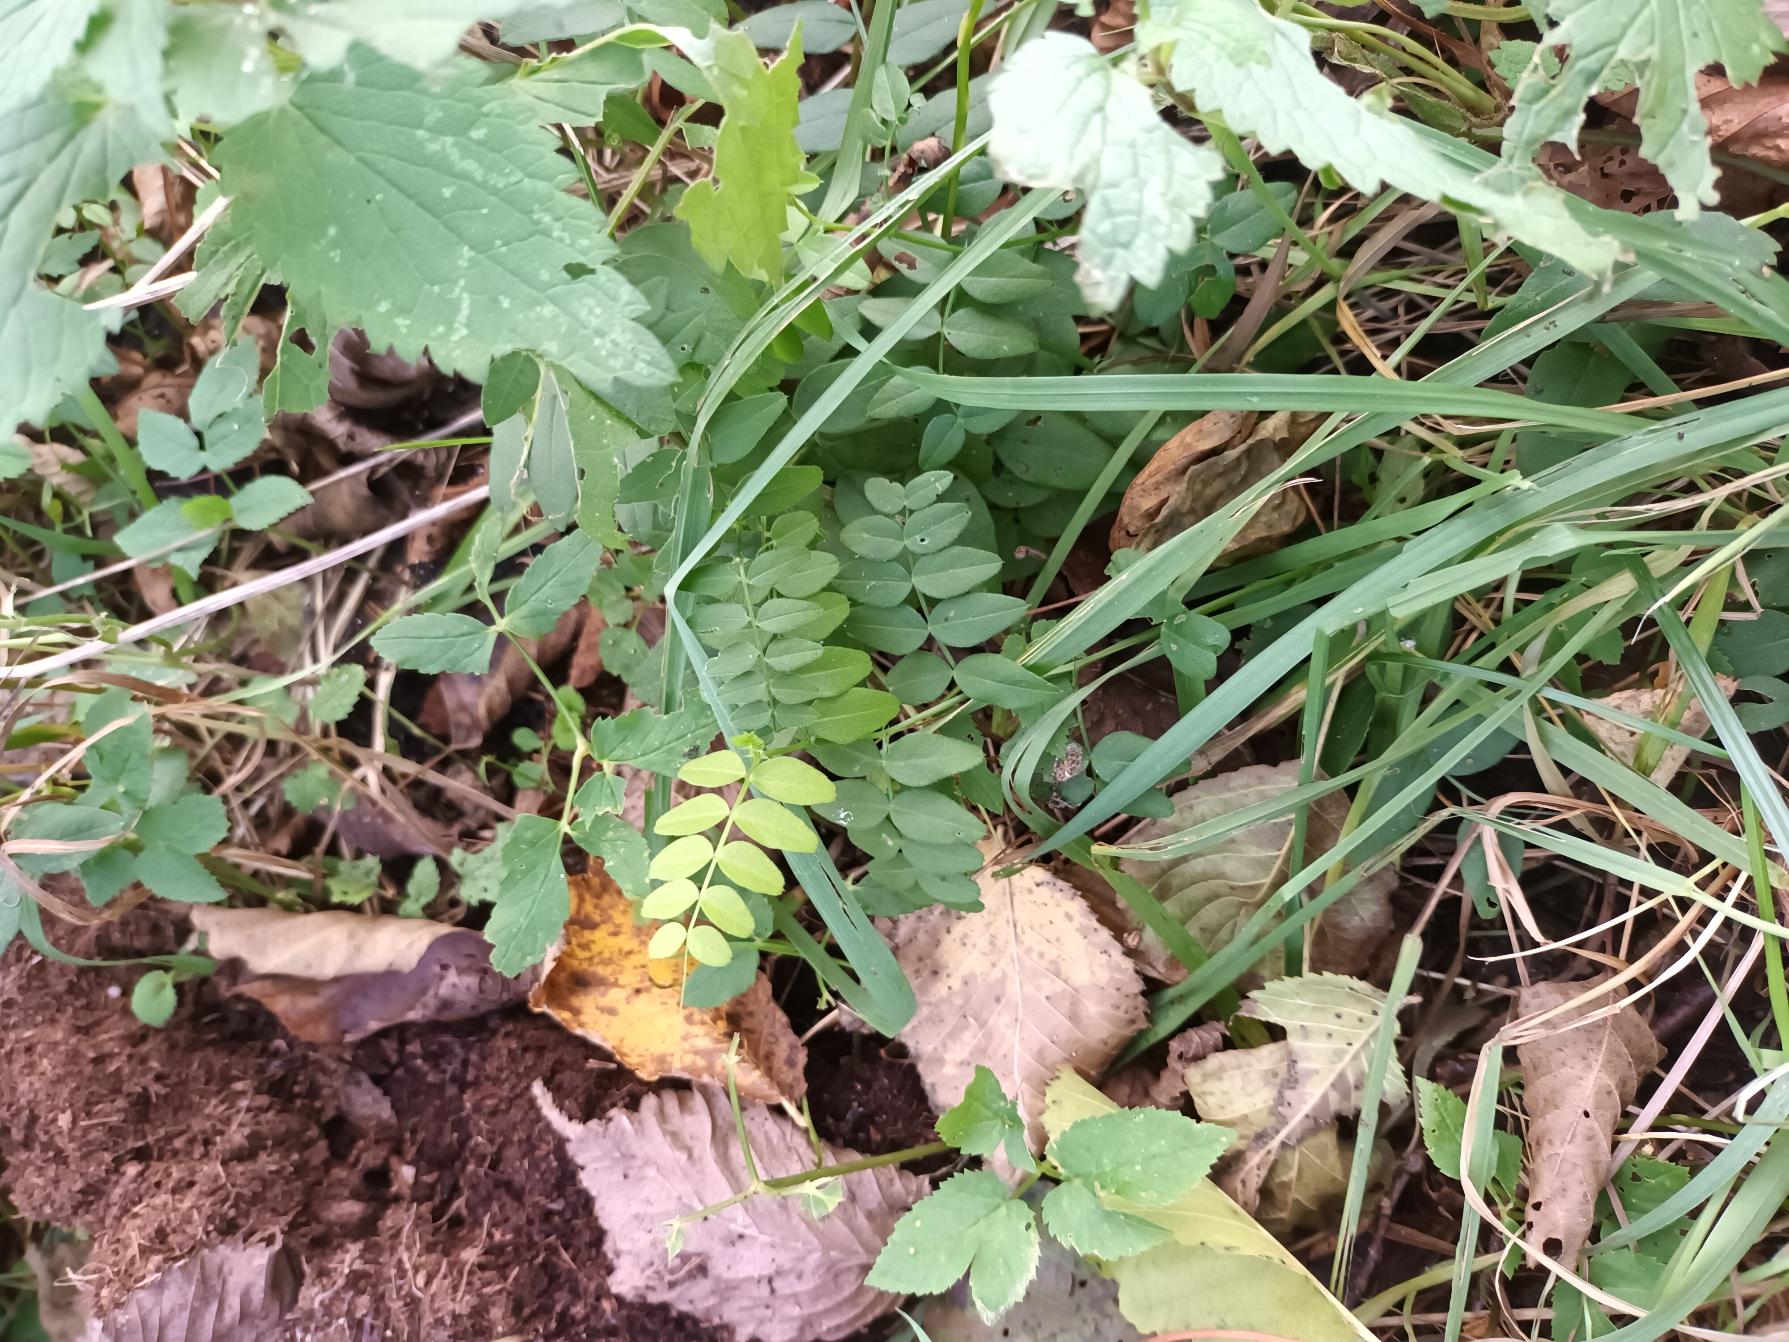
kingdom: Plantae
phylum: Tracheophyta
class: Magnoliopsida
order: Fabales
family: Fabaceae
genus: Vicia
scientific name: Vicia sepium
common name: Gærde-vikke
